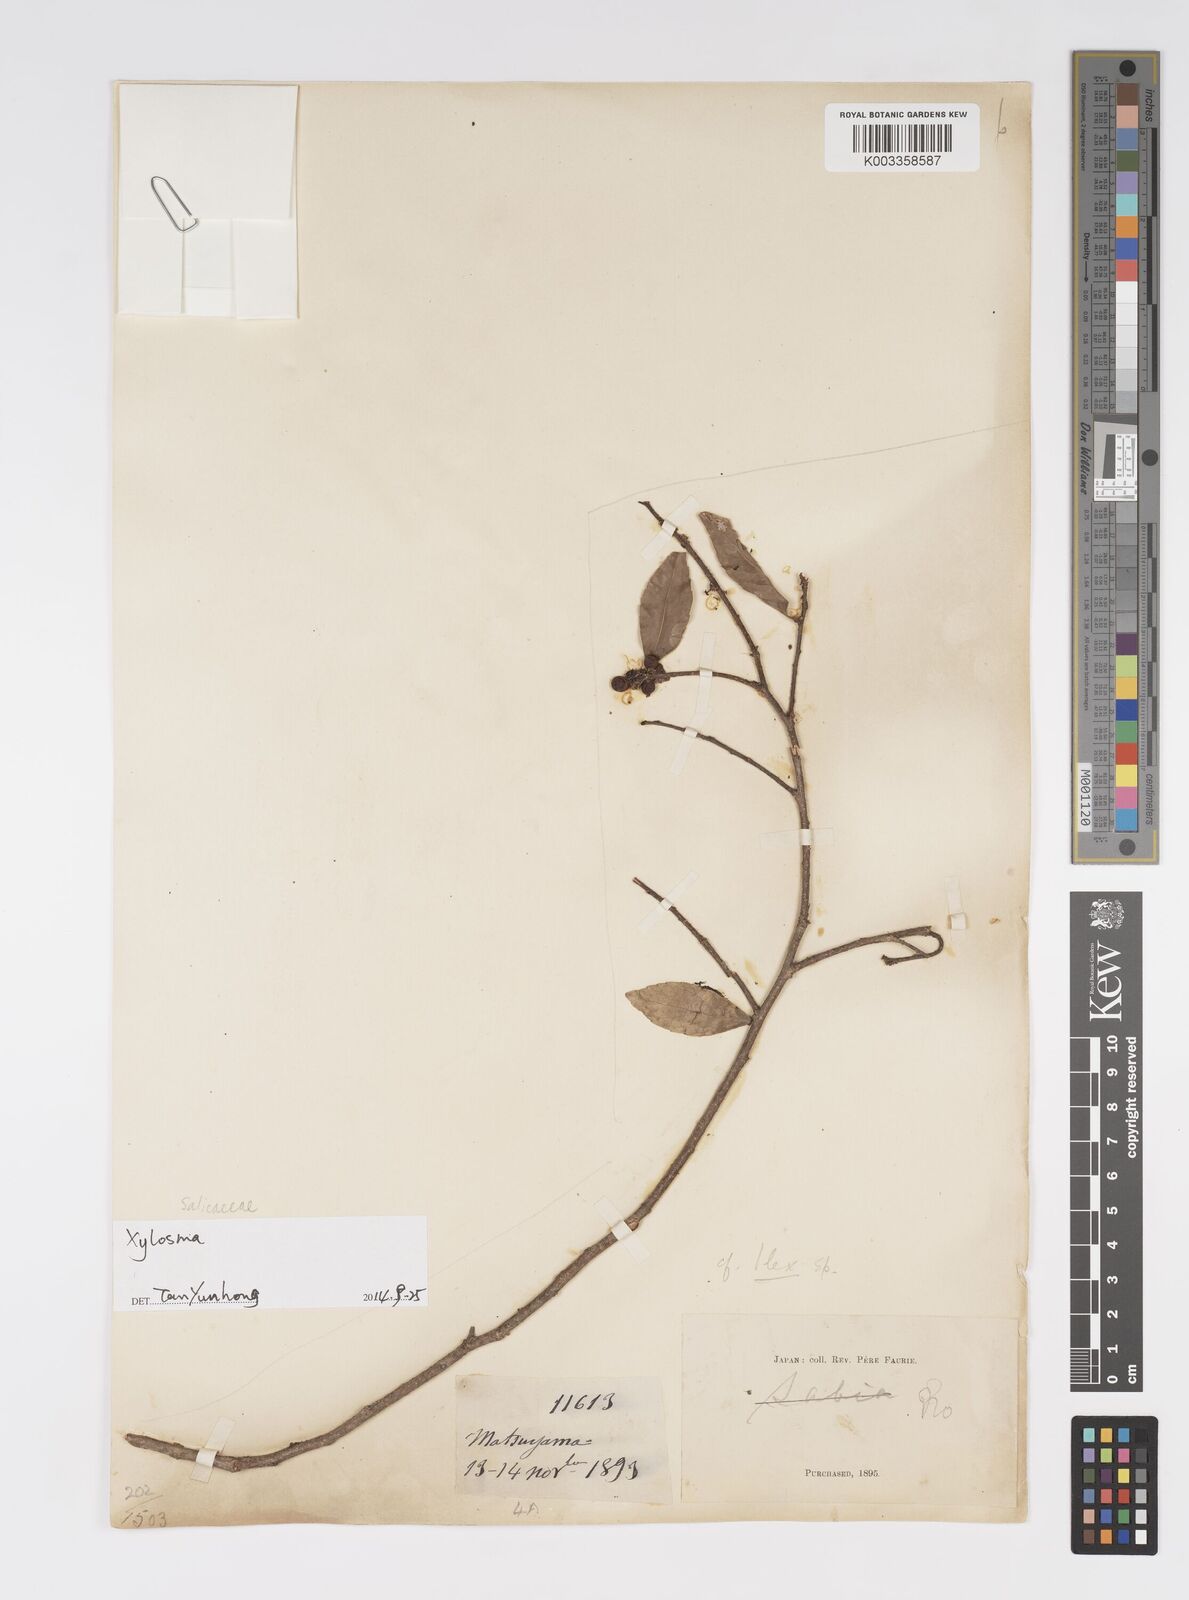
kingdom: Plantae
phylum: Tracheophyta
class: Magnoliopsida
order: Malpighiales
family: Salicaceae
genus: Xylosma
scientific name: Xylosma
